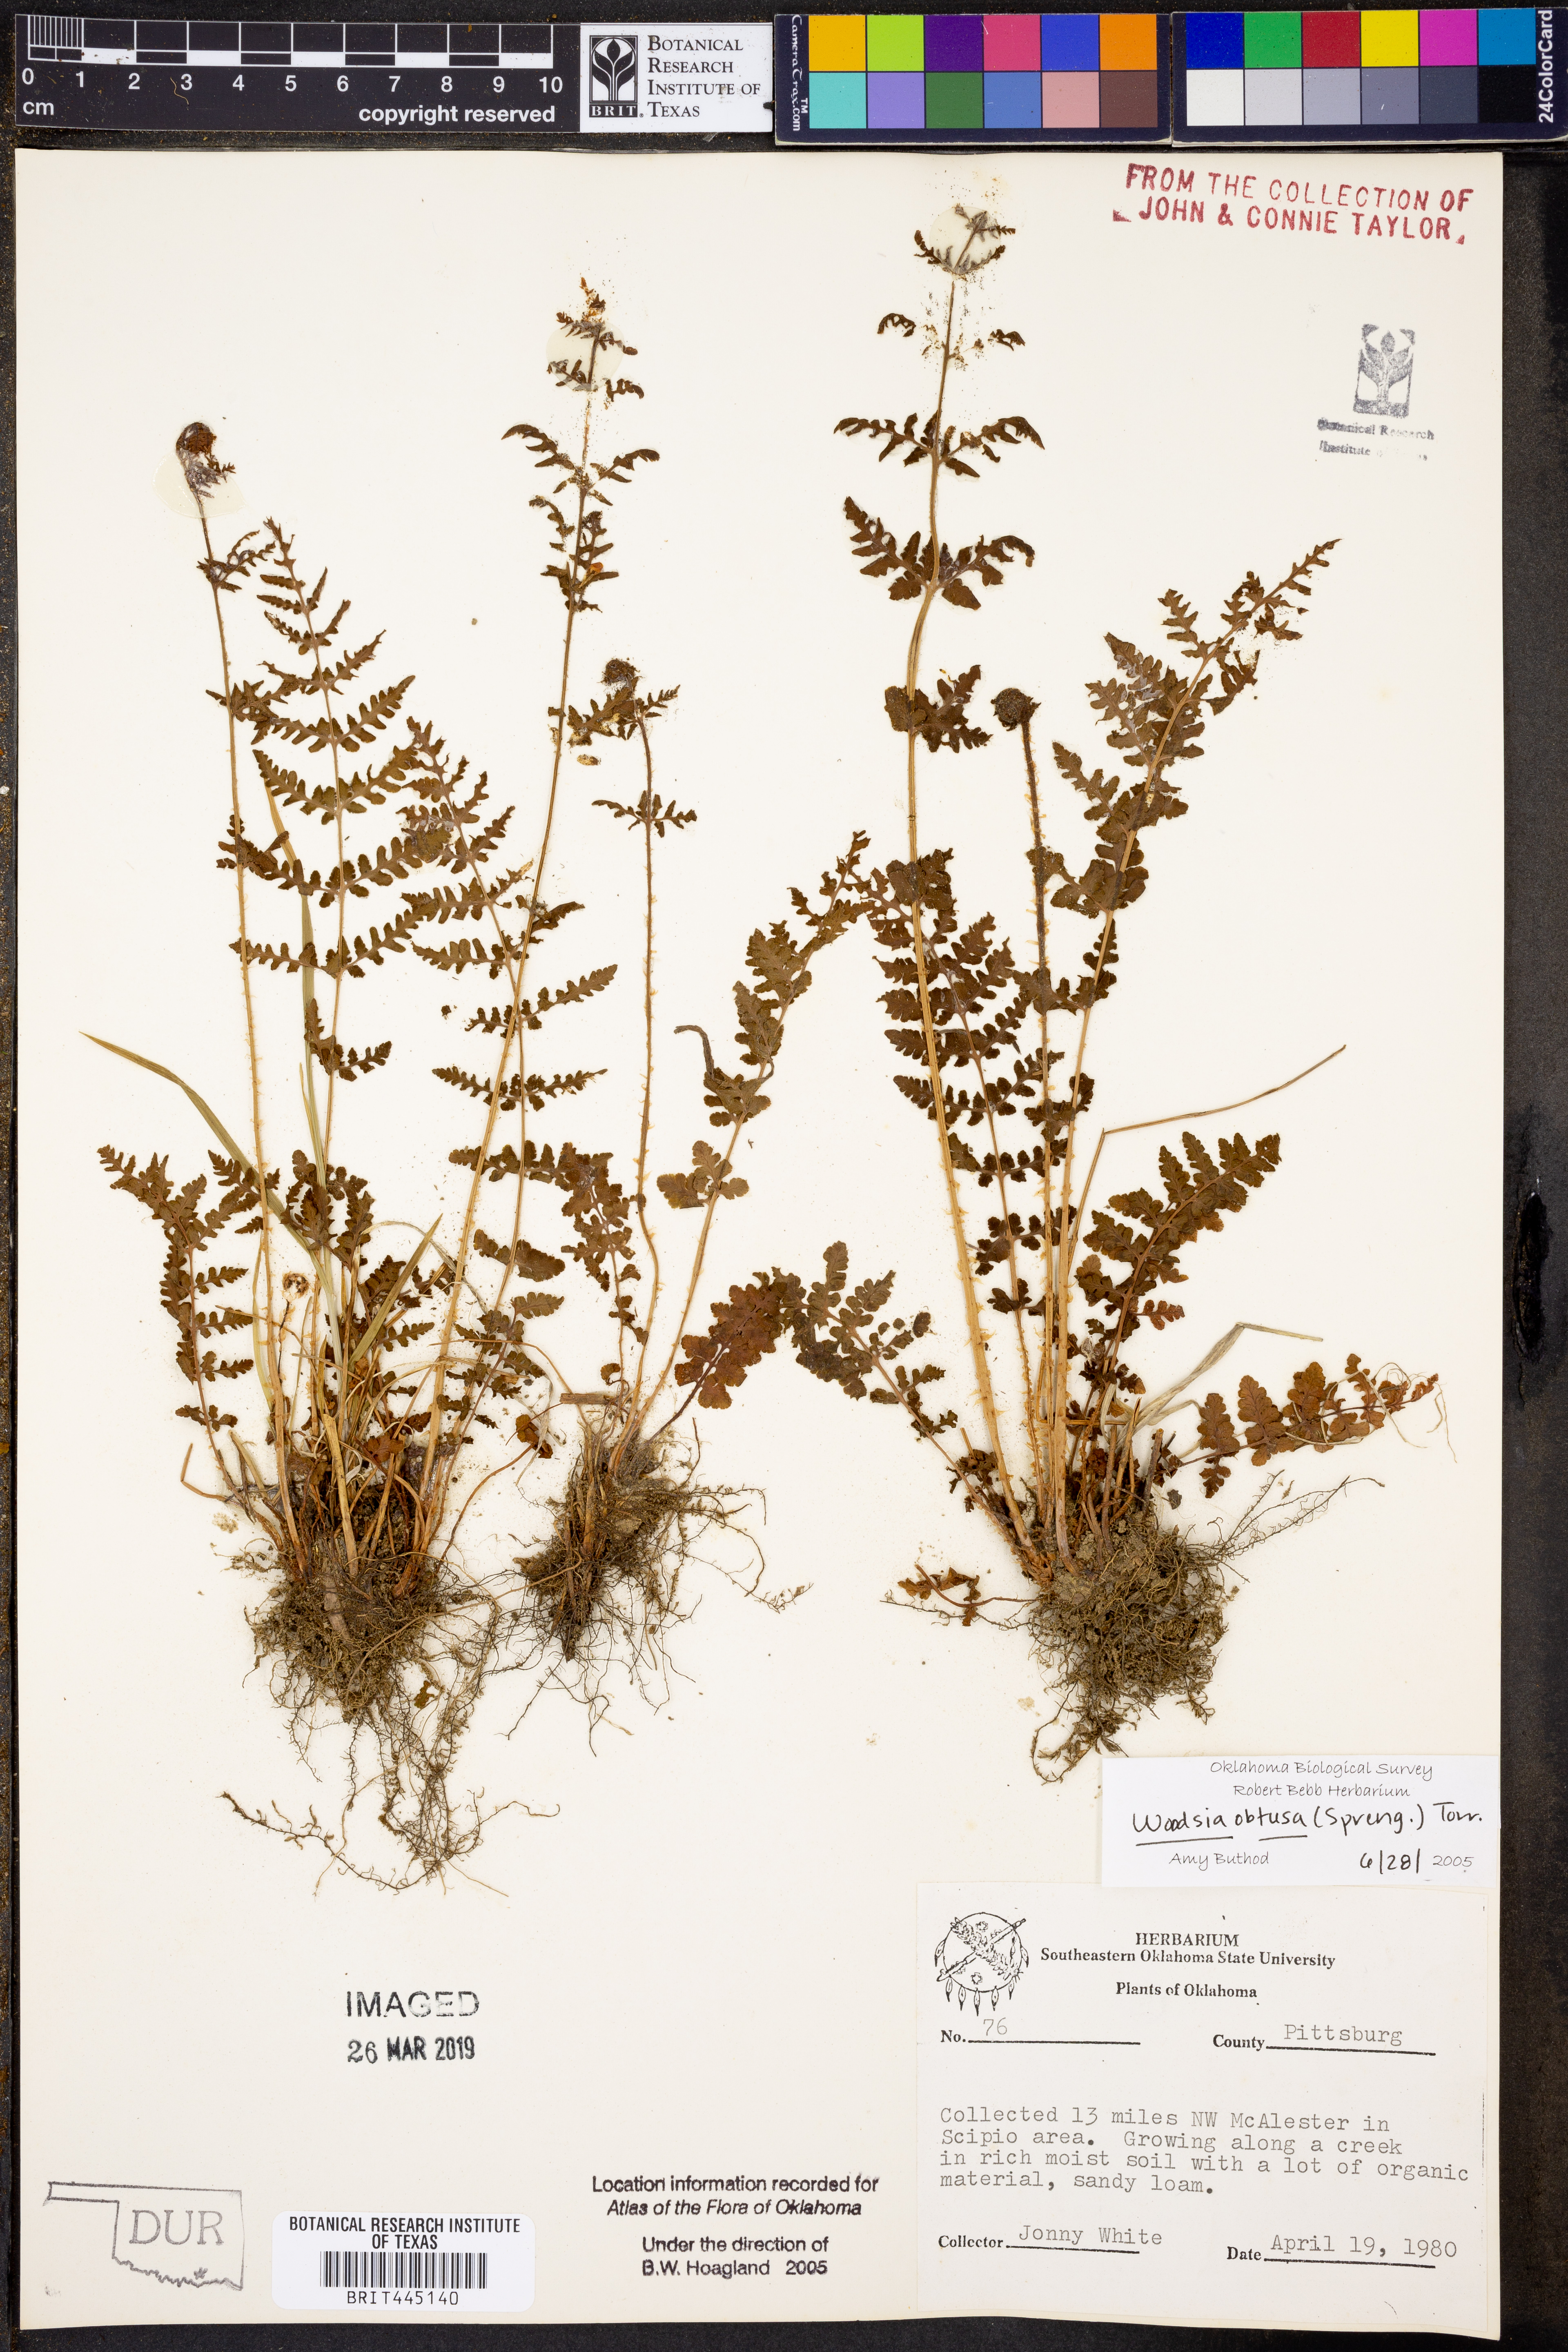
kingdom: Plantae
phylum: Tracheophyta
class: Polypodiopsida
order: Polypodiales
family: Woodsiaceae
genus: Physematium
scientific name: Physematium obtusum
